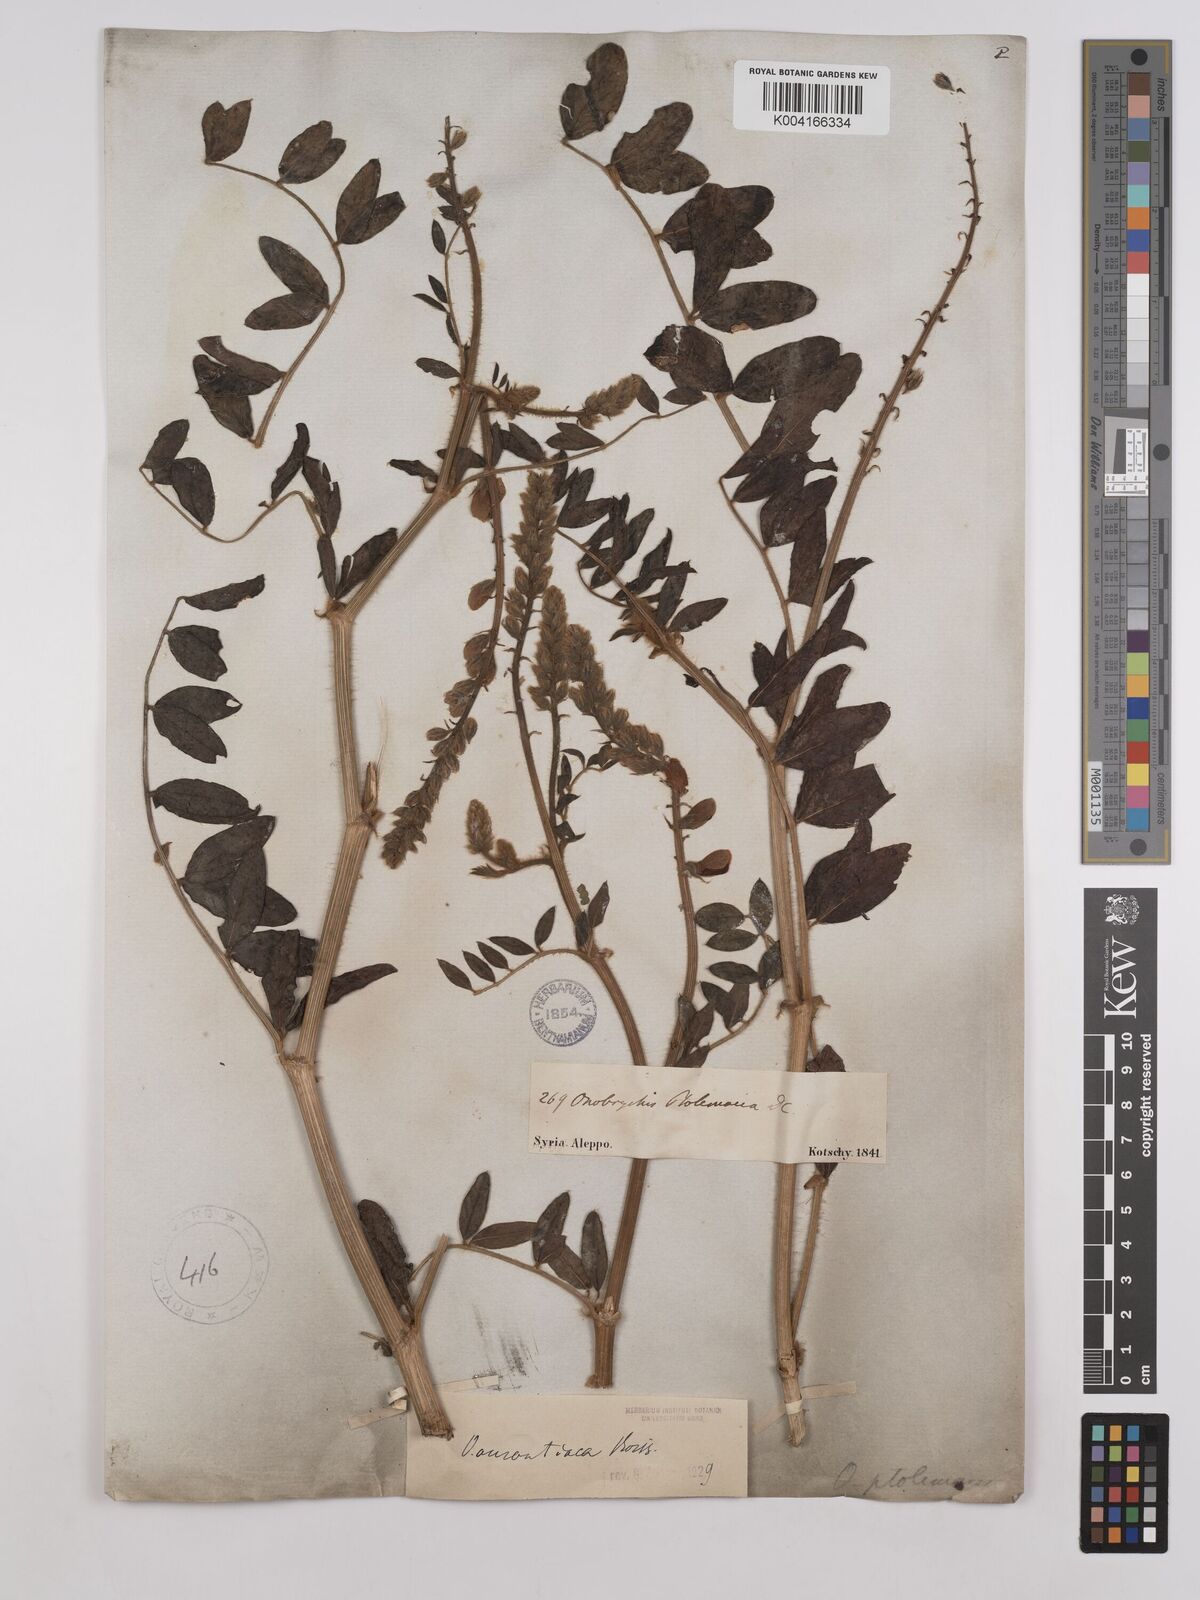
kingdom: Plantae
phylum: Tracheophyta
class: Magnoliopsida
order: Fabales
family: Fabaceae
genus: Onobrychis
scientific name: Onobrychis galegifolia
